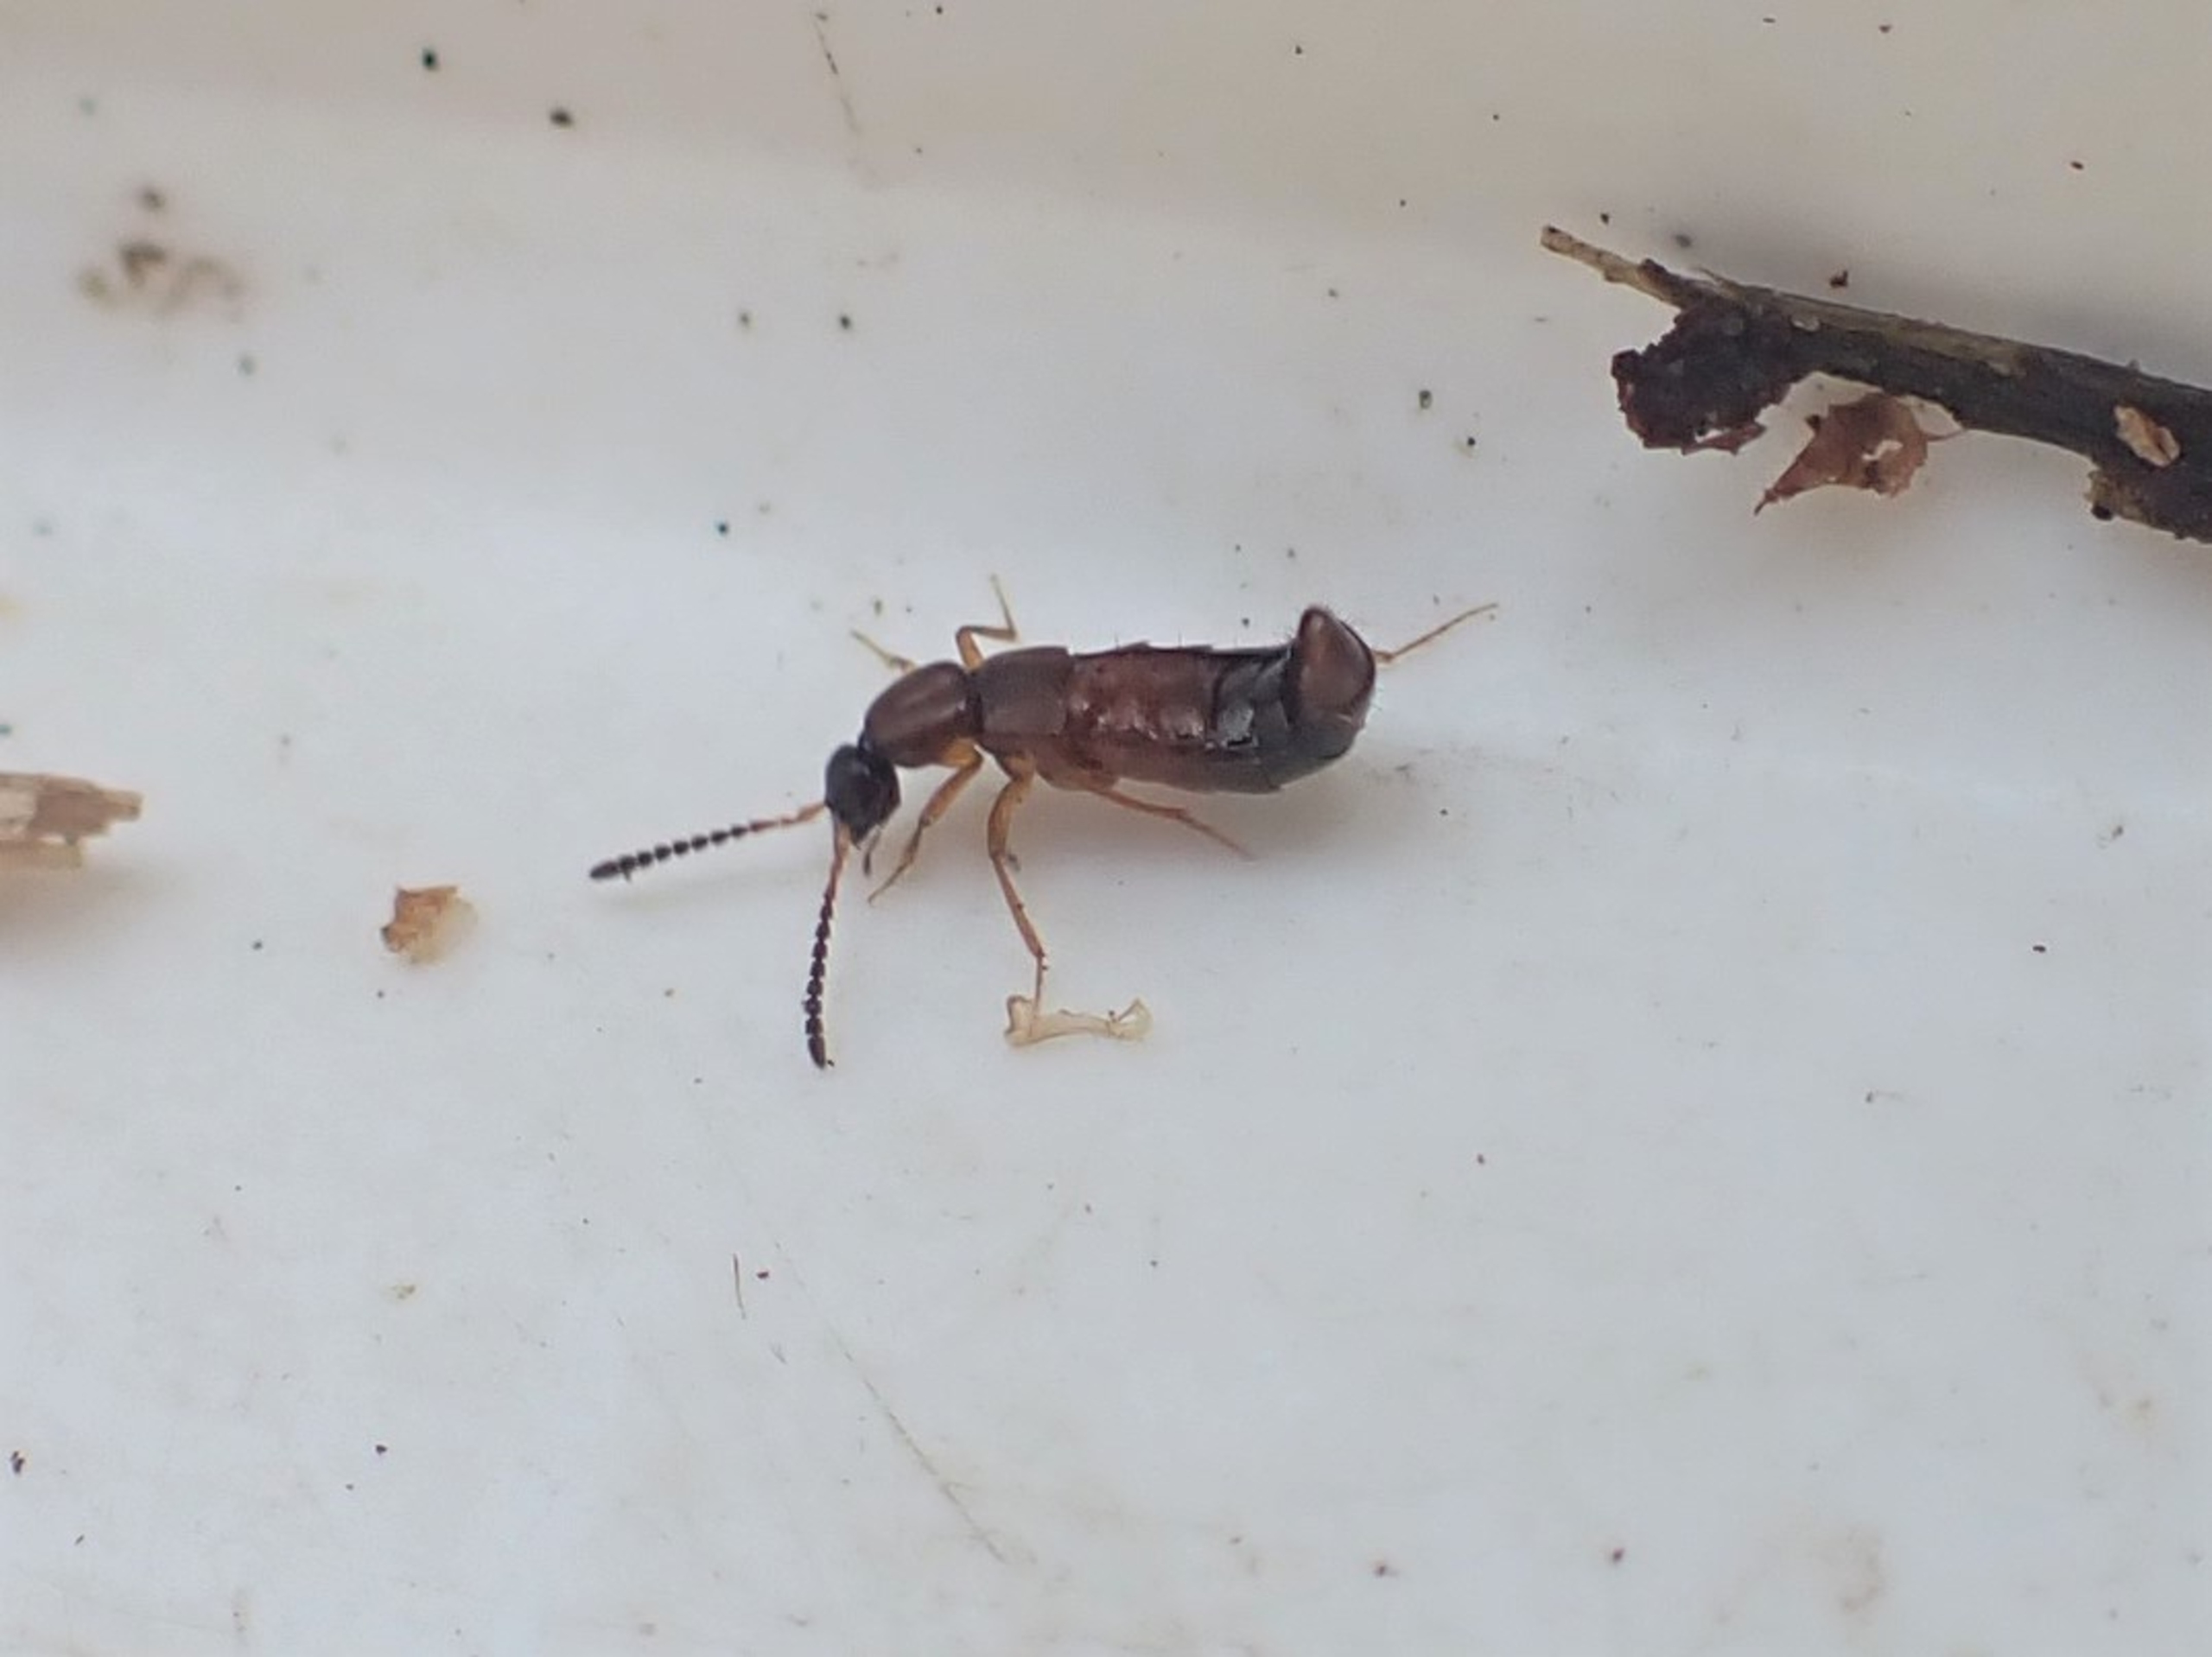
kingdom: Animalia
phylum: Arthropoda
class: Insecta
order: Coleoptera
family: Staphylinidae
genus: Drusilla
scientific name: Drusilla canaliculata
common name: Myrerøver
